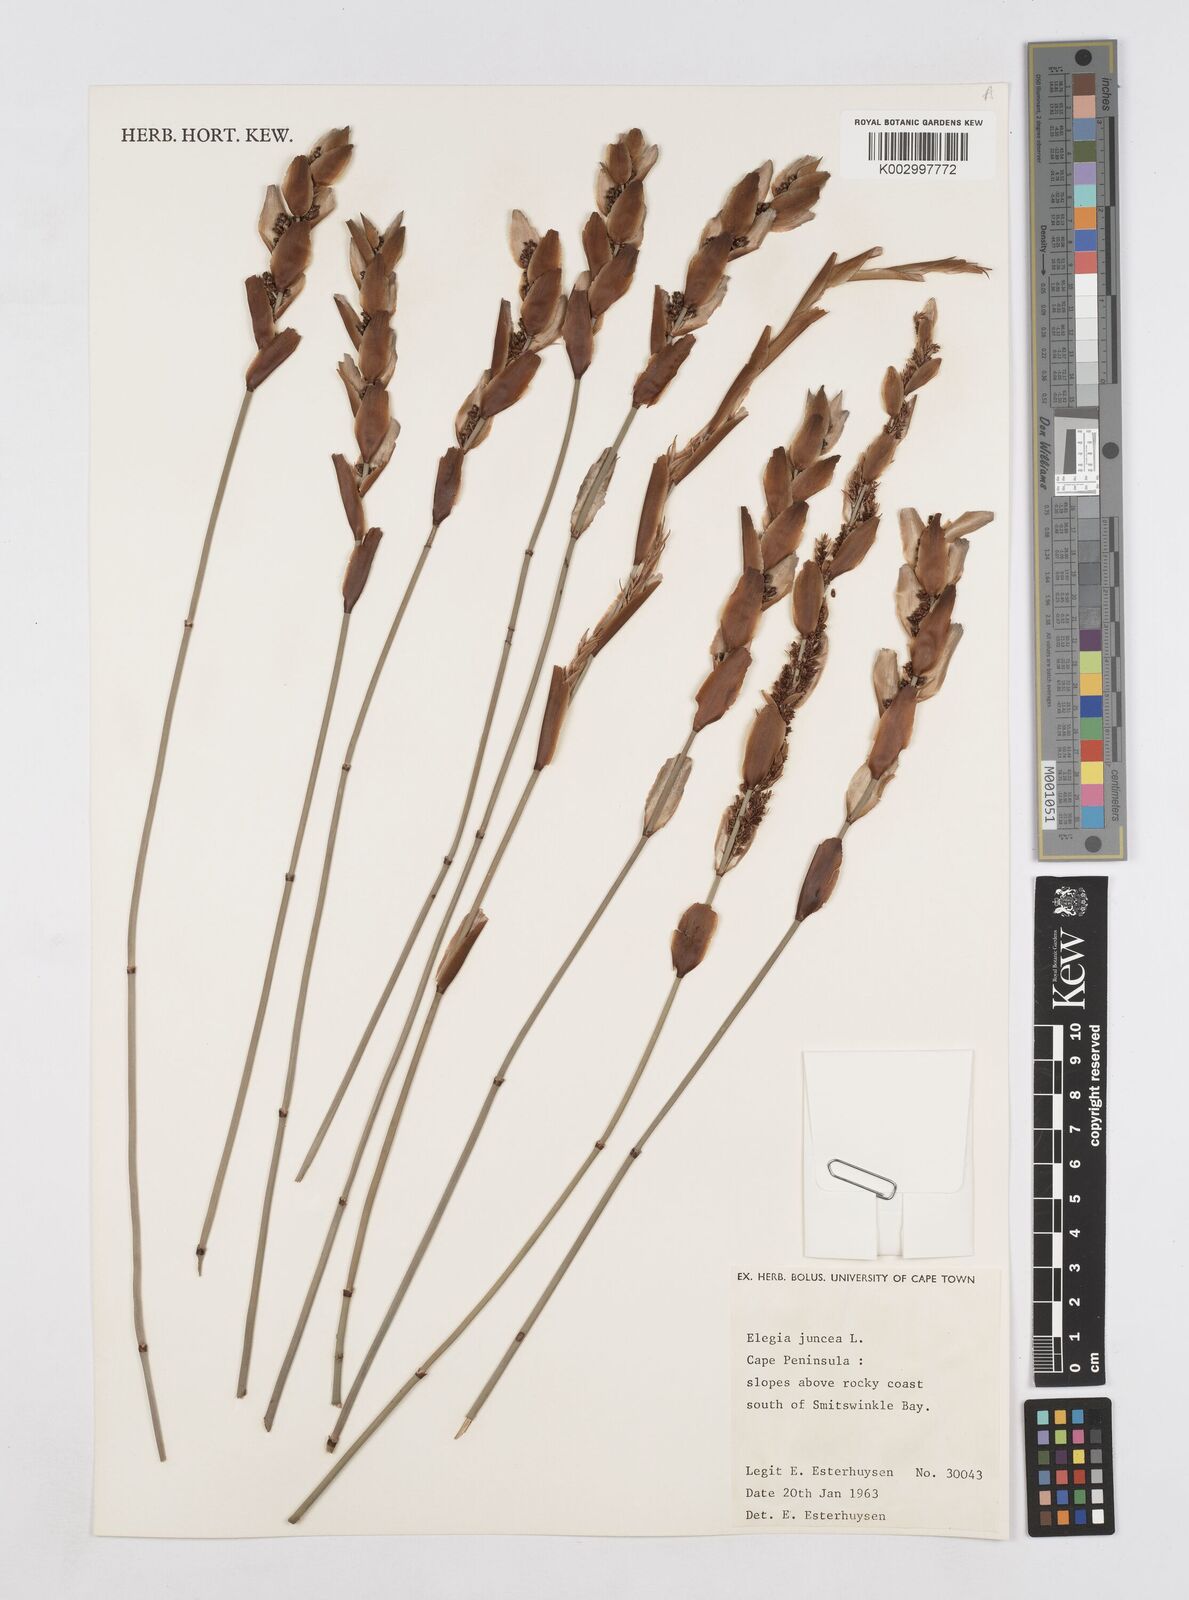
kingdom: Plantae
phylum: Tracheophyta
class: Liliopsida
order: Poales
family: Restionaceae
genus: Elegia
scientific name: Elegia juncea
